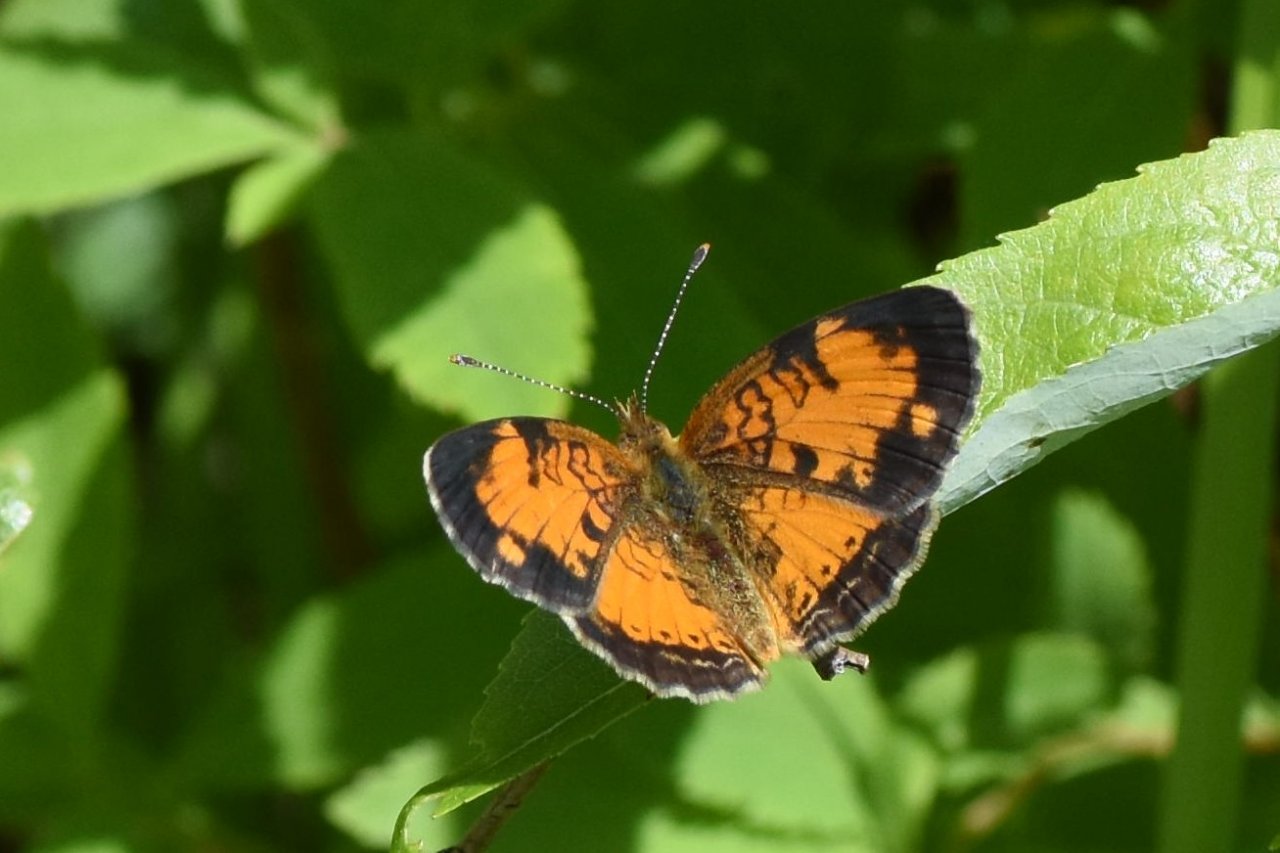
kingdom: Animalia
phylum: Arthropoda
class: Insecta
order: Lepidoptera
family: Nymphalidae
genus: Phyciodes
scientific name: Phyciodes tharos
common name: Northern Crescent
